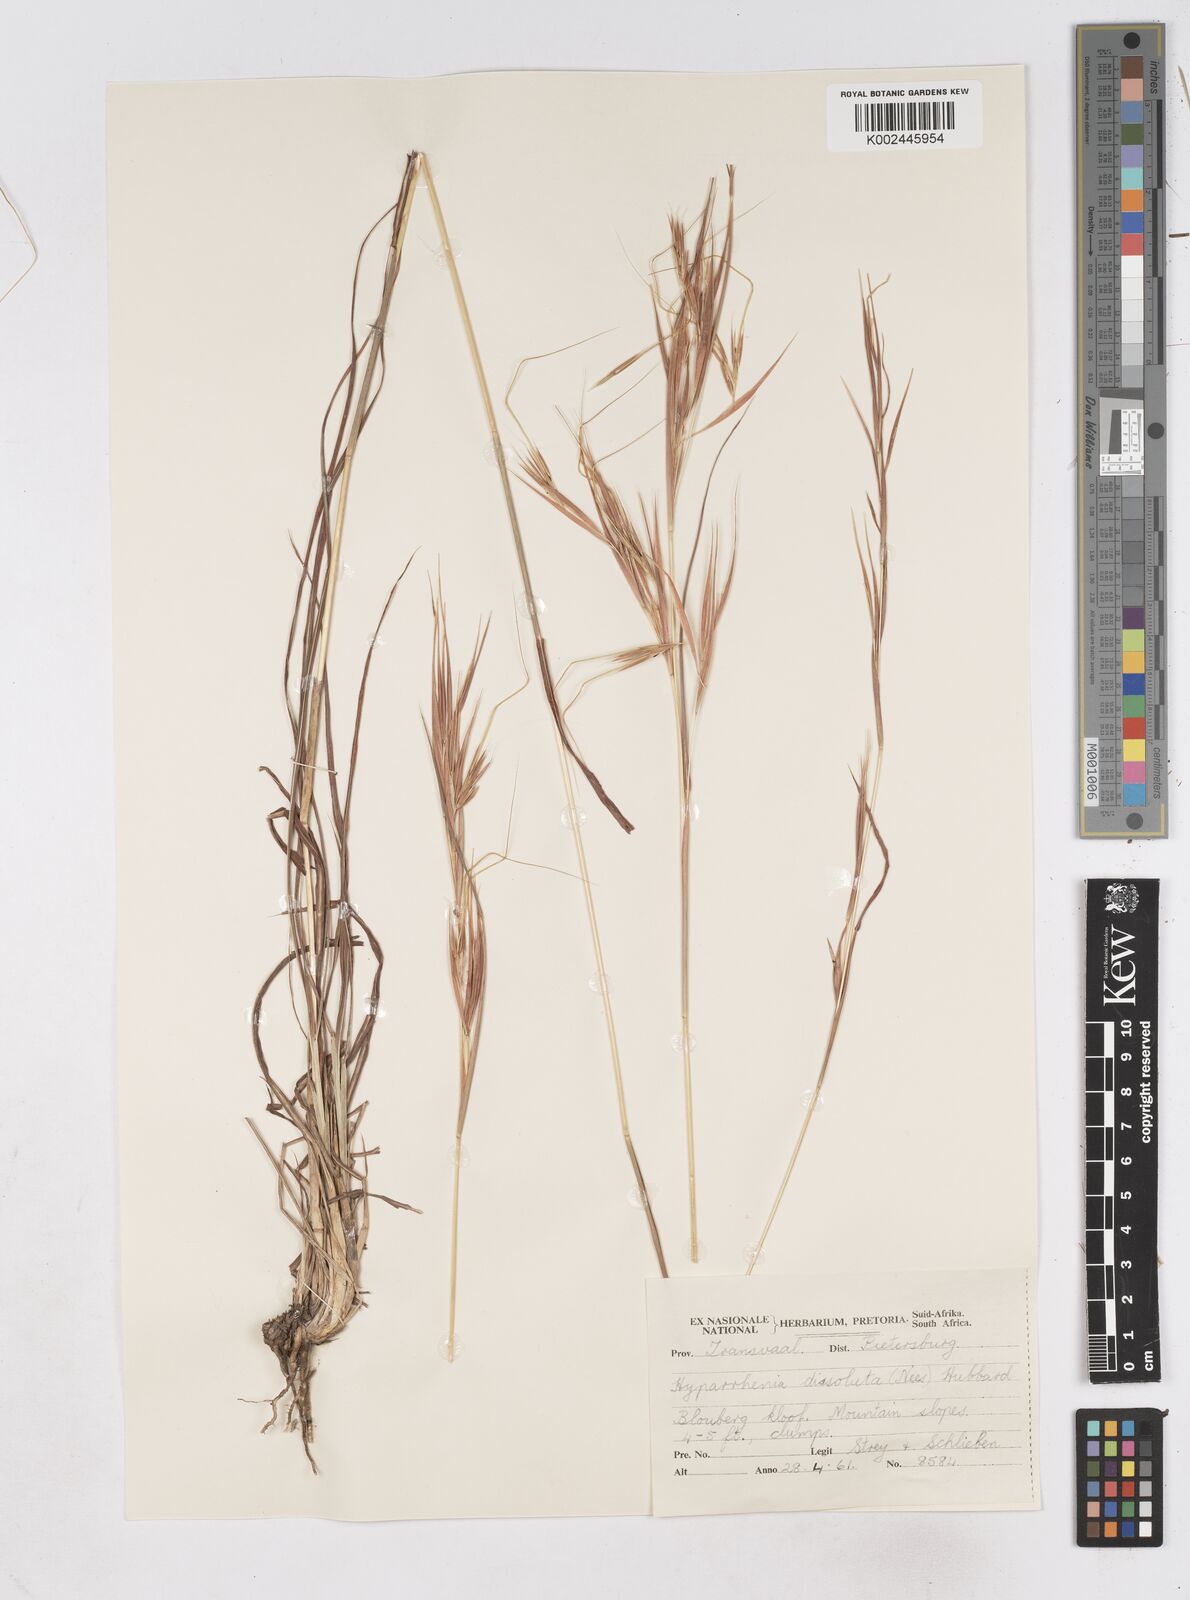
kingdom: Plantae
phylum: Tracheophyta
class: Liliopsida
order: Poales
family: Poaceae
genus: Hyperthelia
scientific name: Hyperthelia dissoluta
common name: Yellow thatching grass
